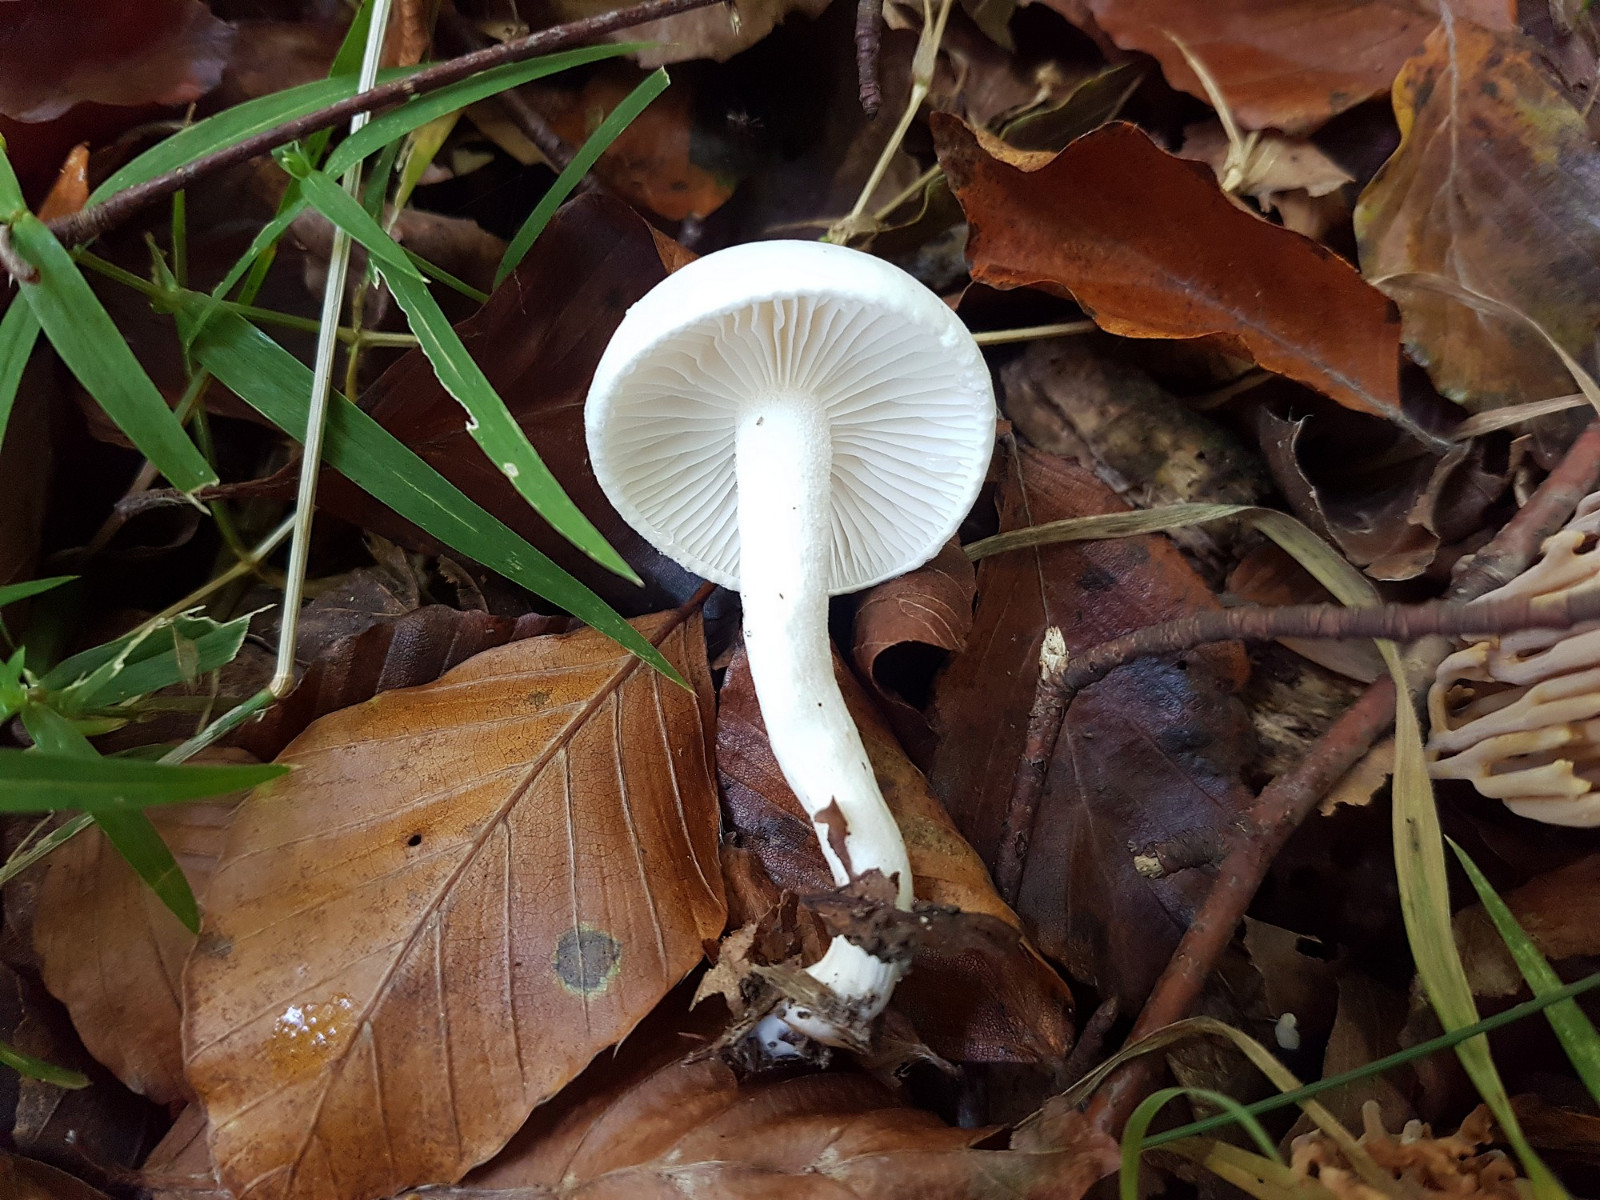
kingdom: Fungi
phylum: Basidiomycota
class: Agaricomycetes
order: Agaricales
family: Hygrophoraceae
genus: Hygrophorus
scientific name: Hygrophorus eburneus
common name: elfenbens-sneglehat
